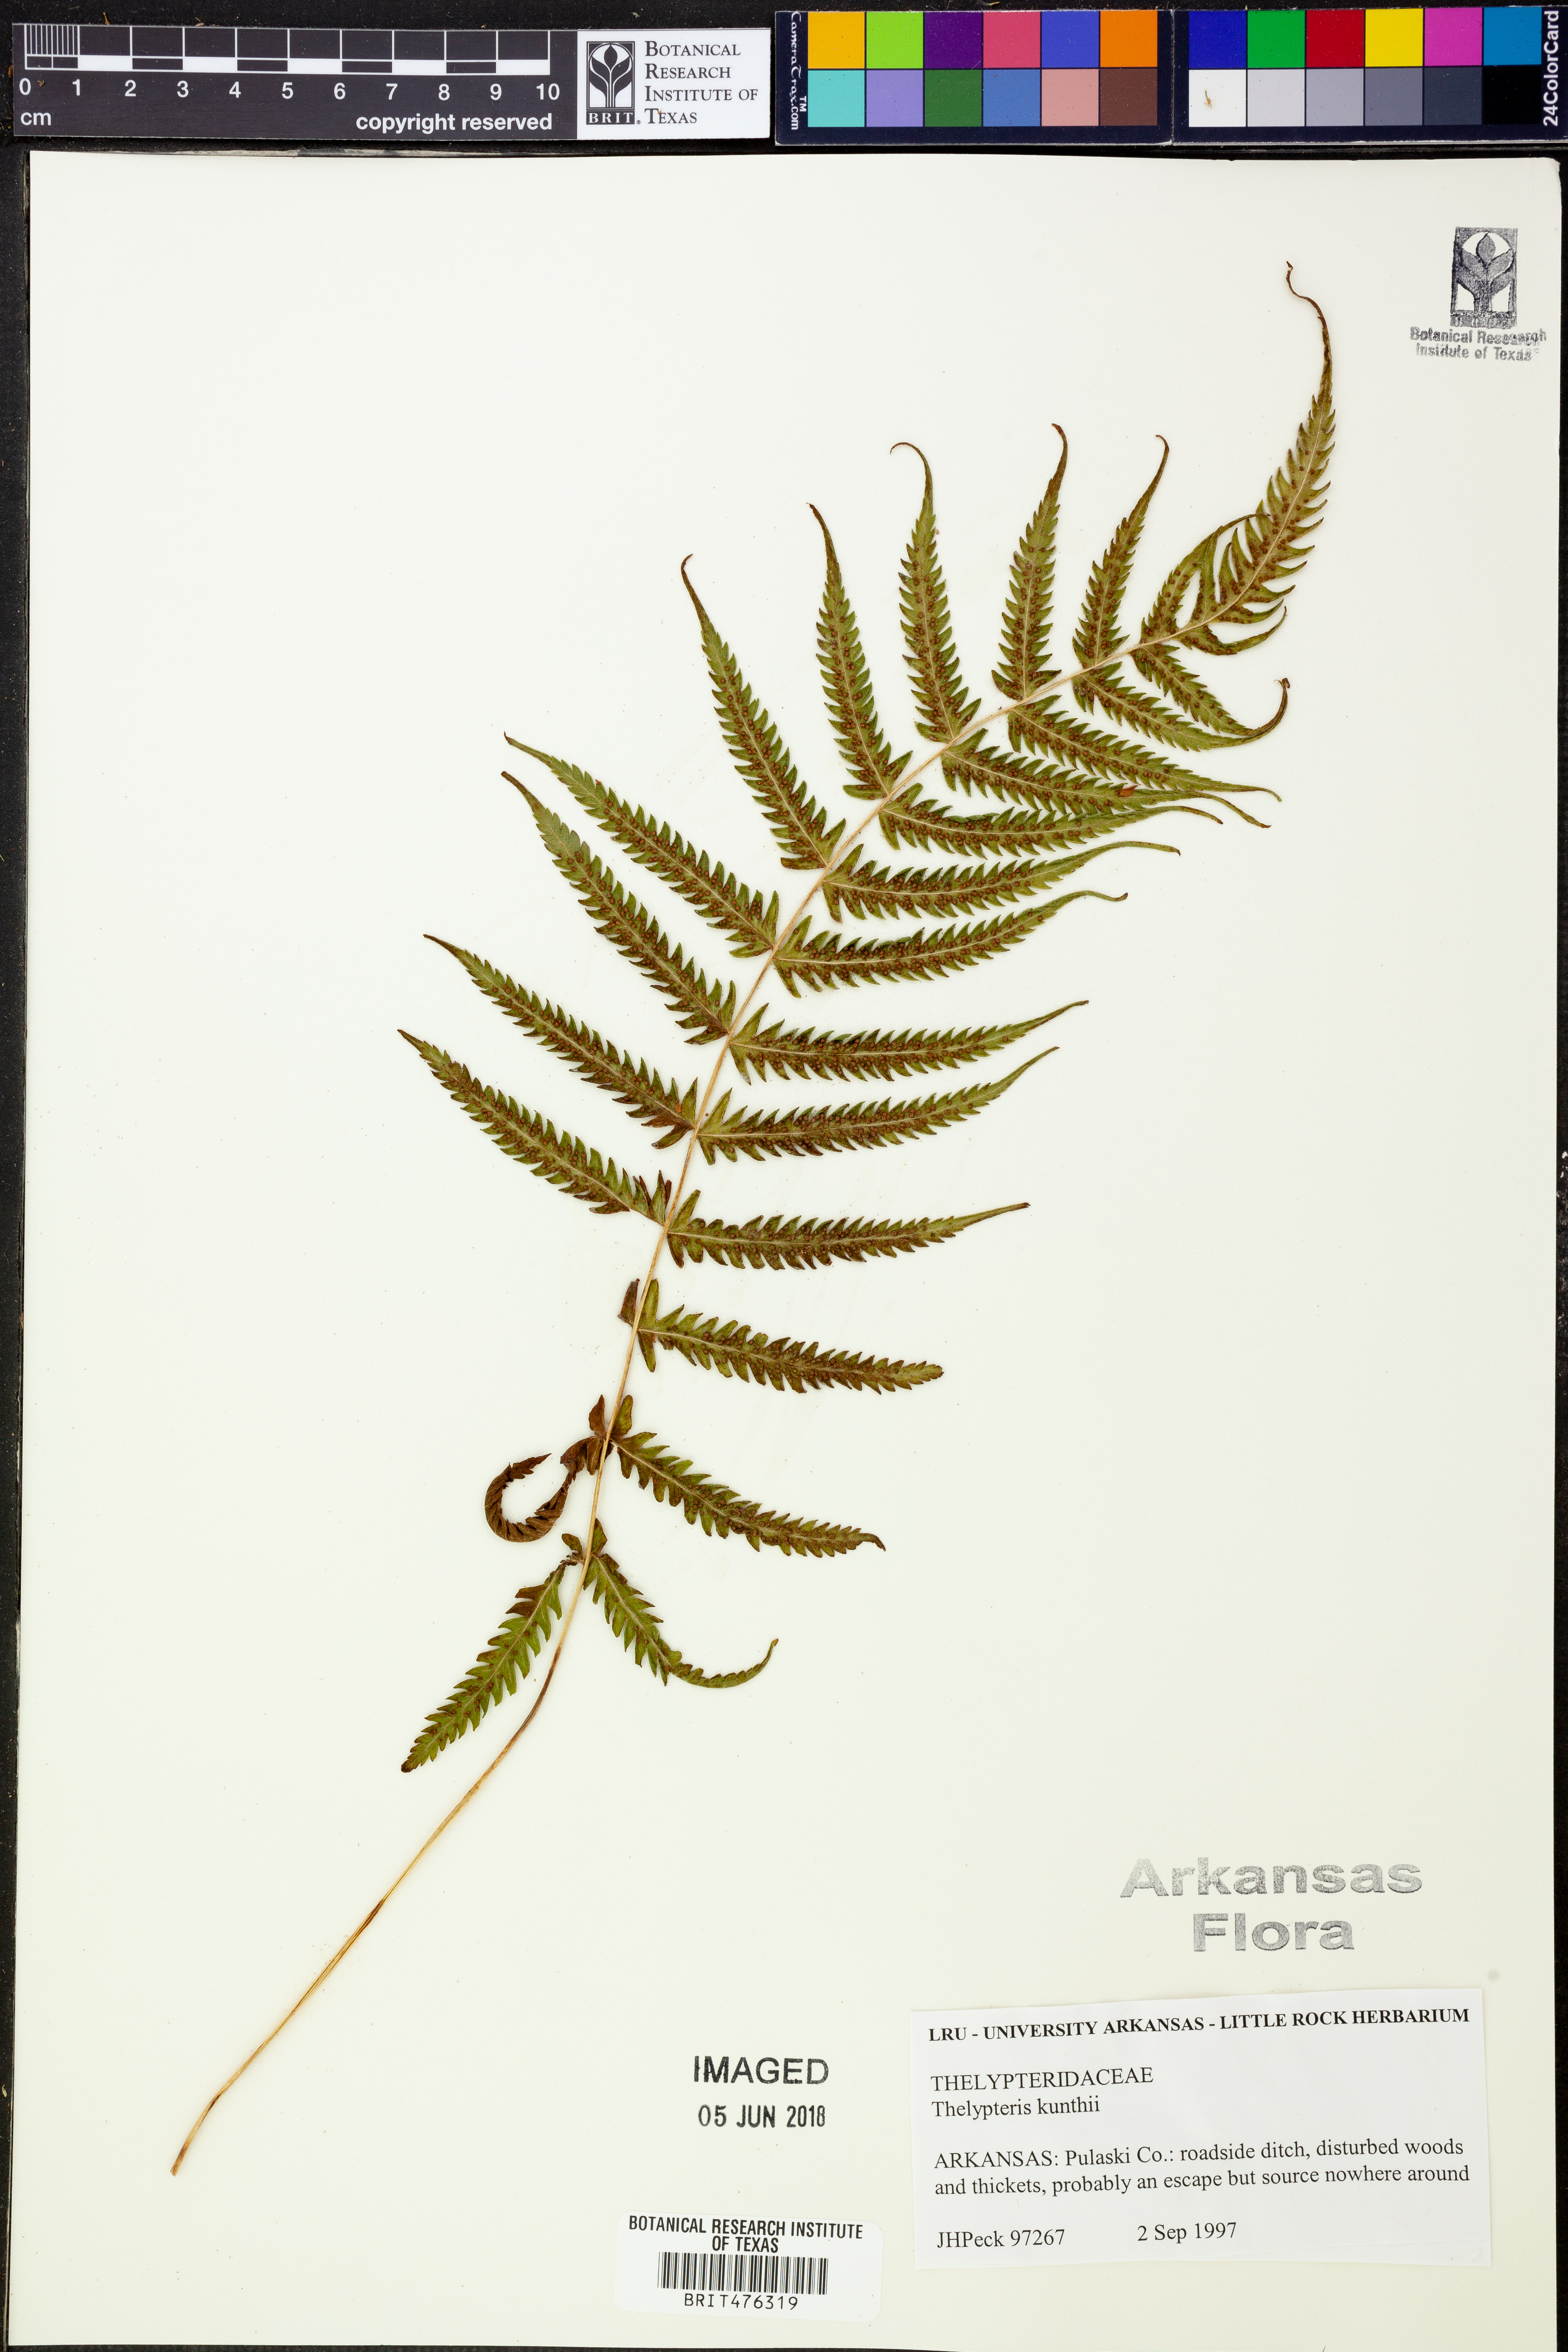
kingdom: Plantae
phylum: Tracheophyta
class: Polypodiopsida
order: Polypodiales
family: Thelypteridaceae
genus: Pelazoneuron
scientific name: Pelazoneuron kunthii
